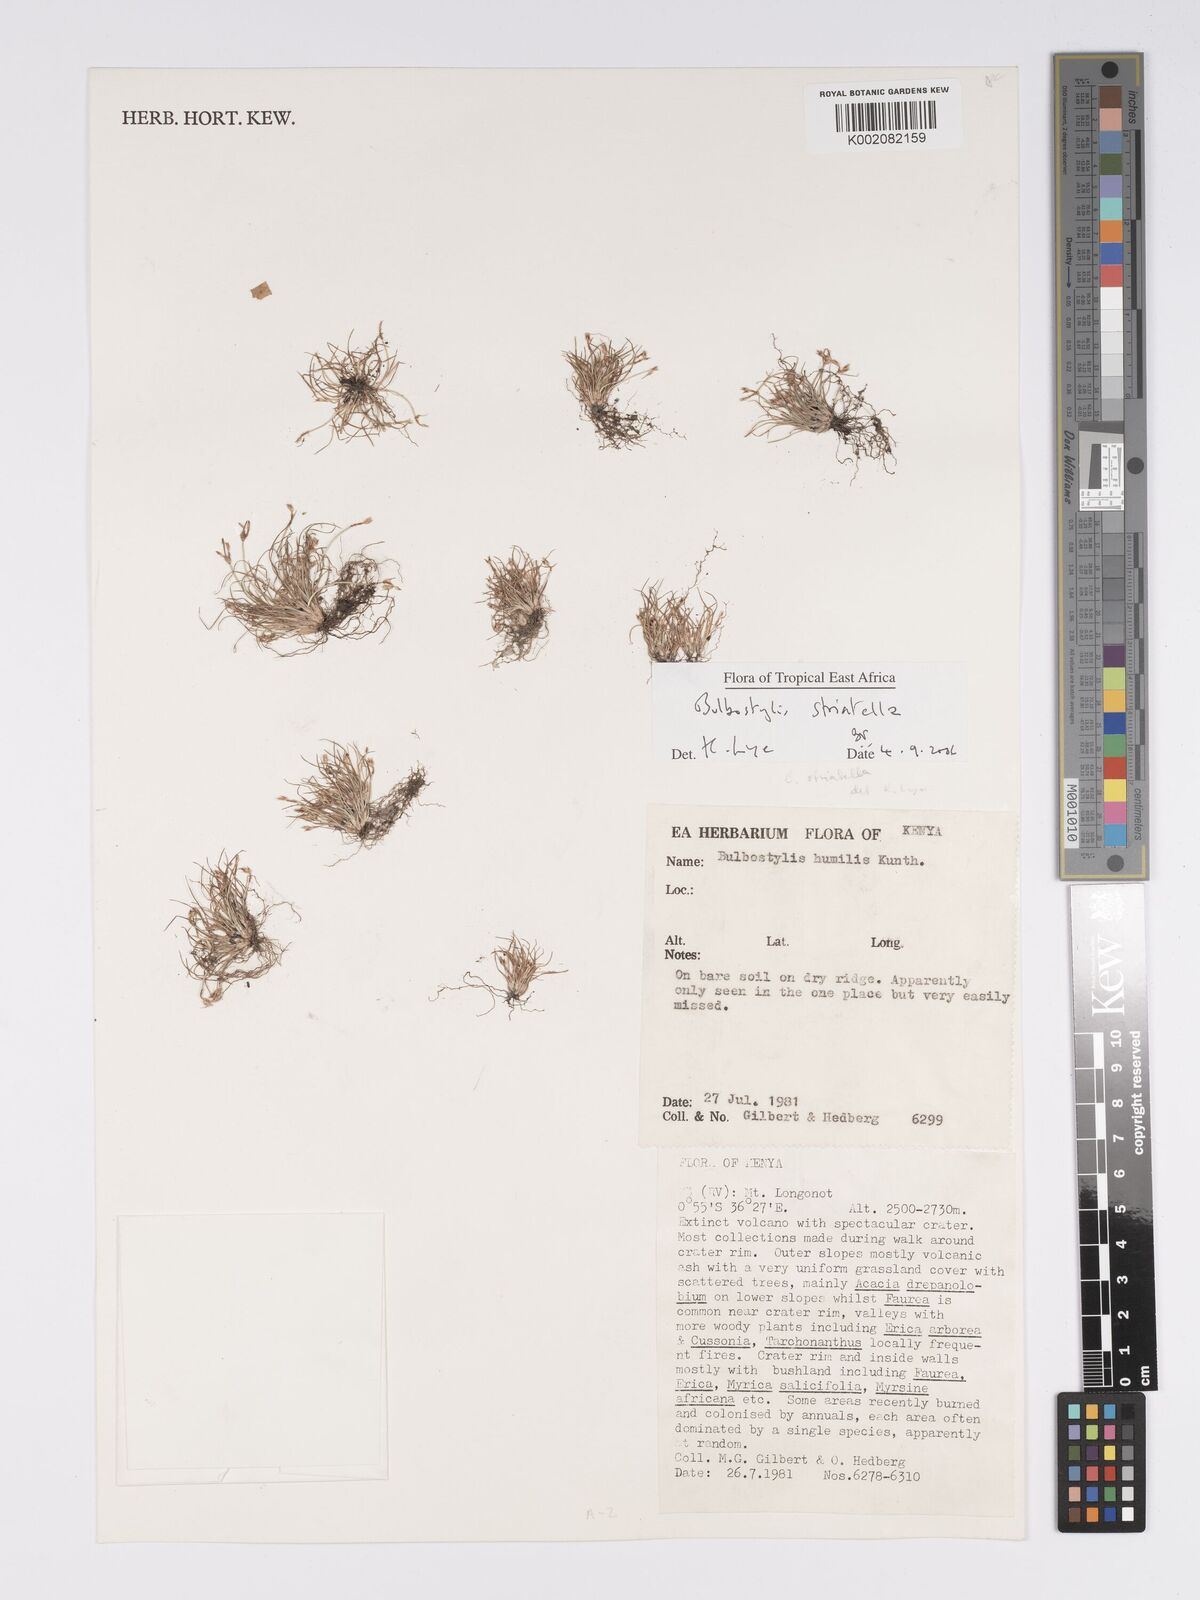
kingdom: Plantae
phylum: Tracheophyta
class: Liliopsida
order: Poales
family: Cyperaceae
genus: Bulbostylis
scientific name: Bulbostylis humilis
